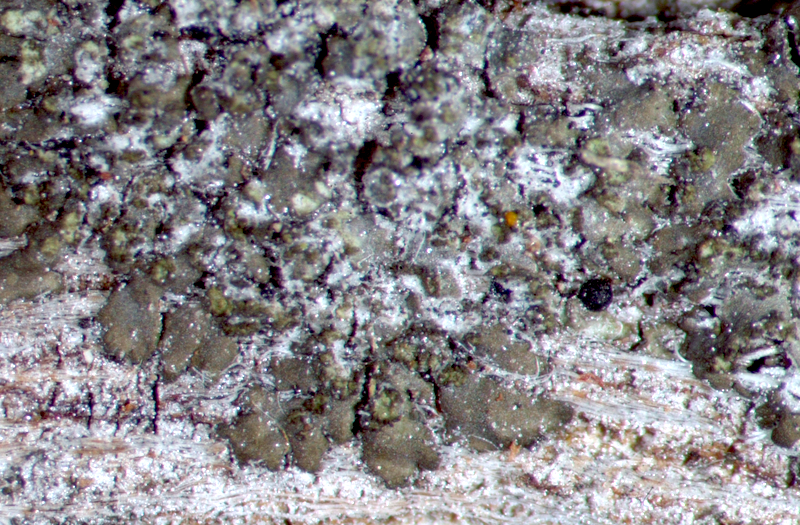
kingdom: Fungi
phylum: Ascomycota
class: Lecanoromycetes
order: Caliciales
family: Caliciaceae
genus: Pyxine
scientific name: Pyxine petricola
